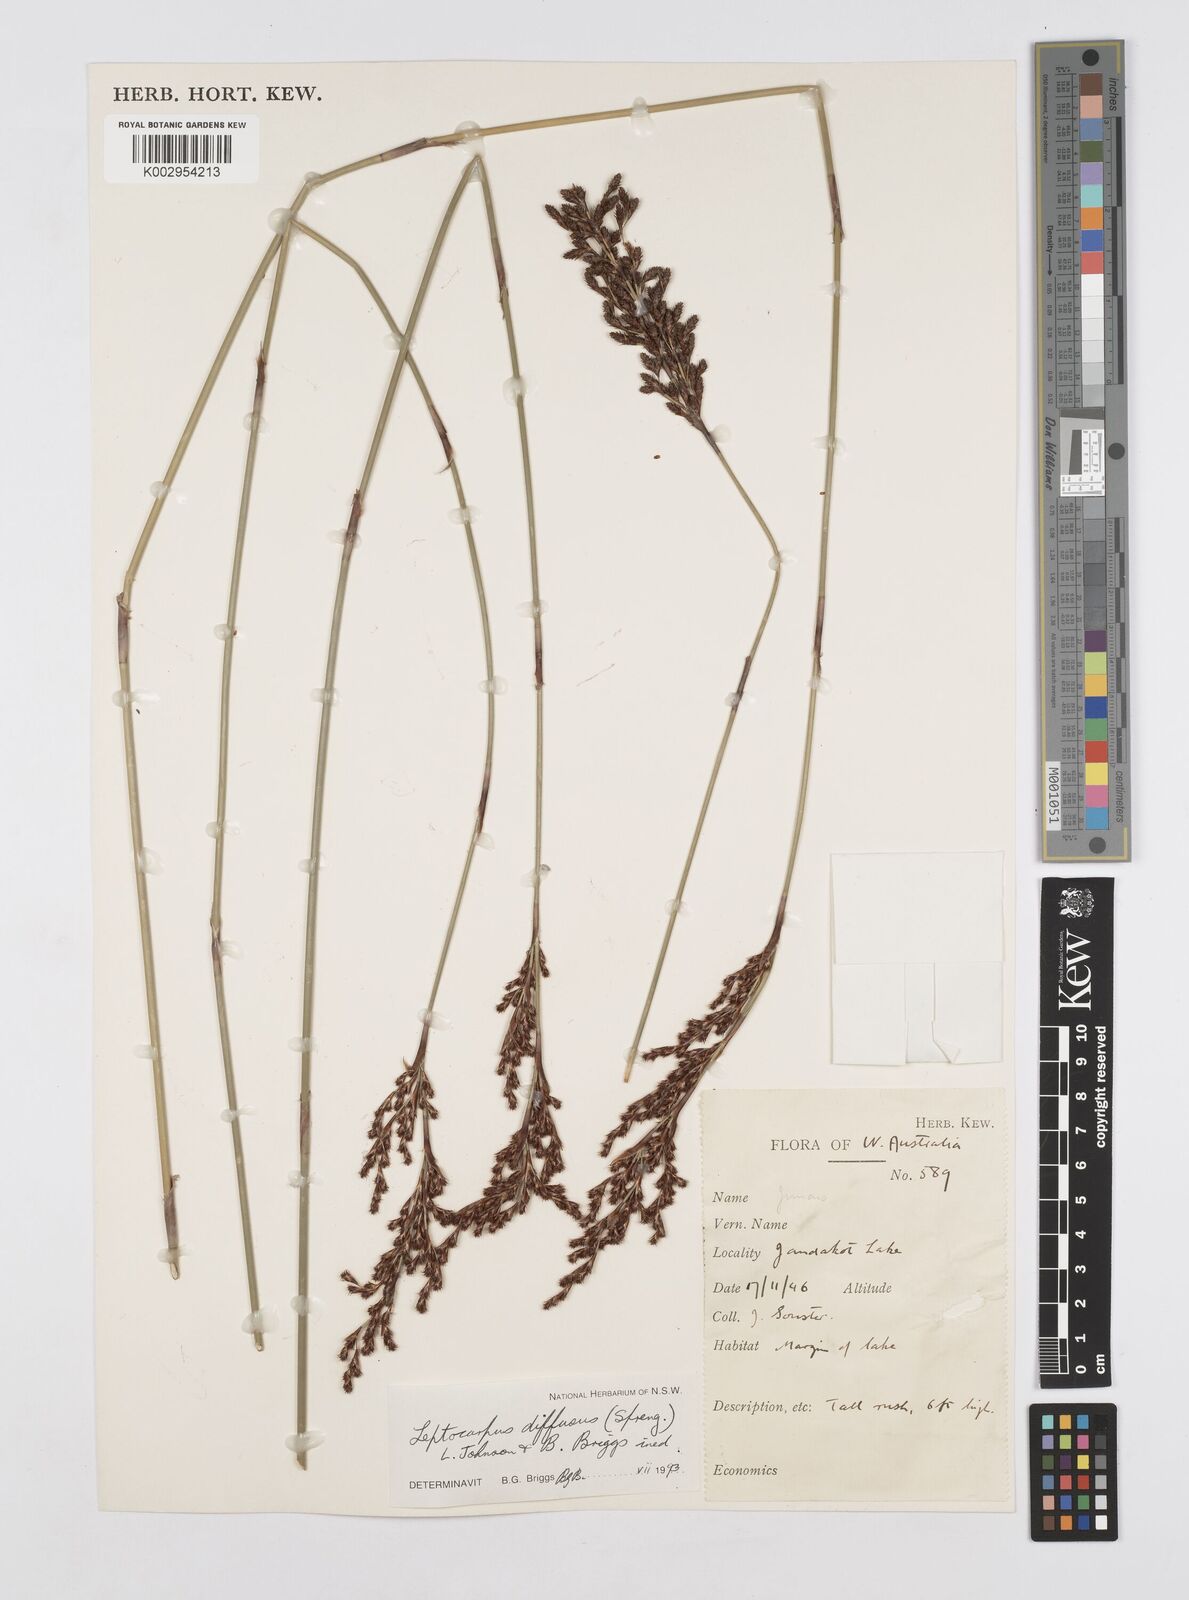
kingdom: Plantae
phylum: Tracheophyta
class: Liliopsida
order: Poales
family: Restionaceae
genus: Leptocarpus
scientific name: Leptocarpus laxus
